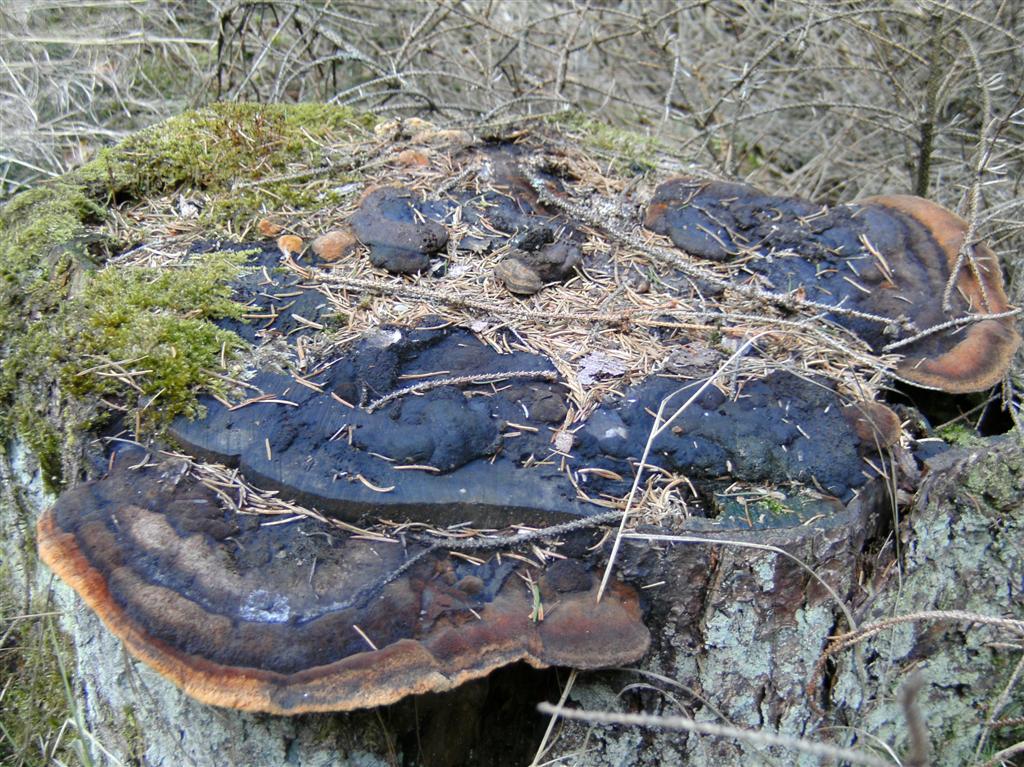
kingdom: Fungi
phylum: Basidiomycota
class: Agaricomycetes
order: Gloeophyllales
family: Gloeophyllaceae
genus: Gloeophyllum
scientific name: Gloeophyllum odoratum
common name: duftende korkhat
